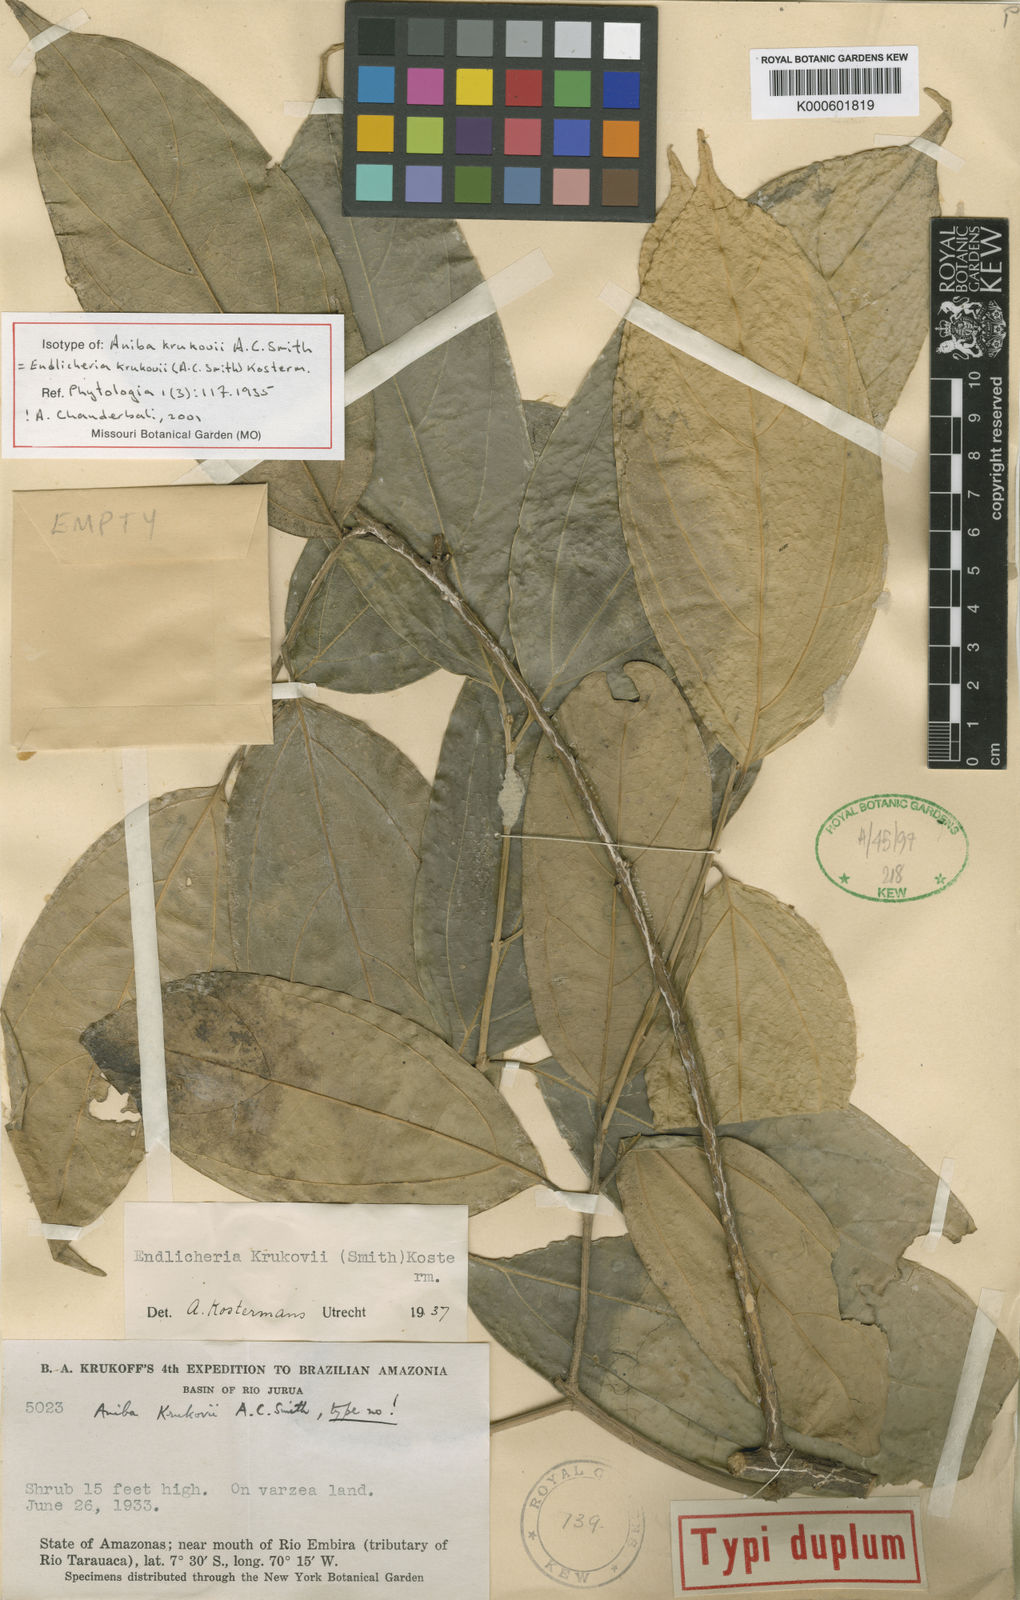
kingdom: Plantae
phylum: Tracheophyta
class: Magnoliopsida
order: Laurales
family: Lauraceae
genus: Endlicheria
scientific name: Endlicheria krukovii
